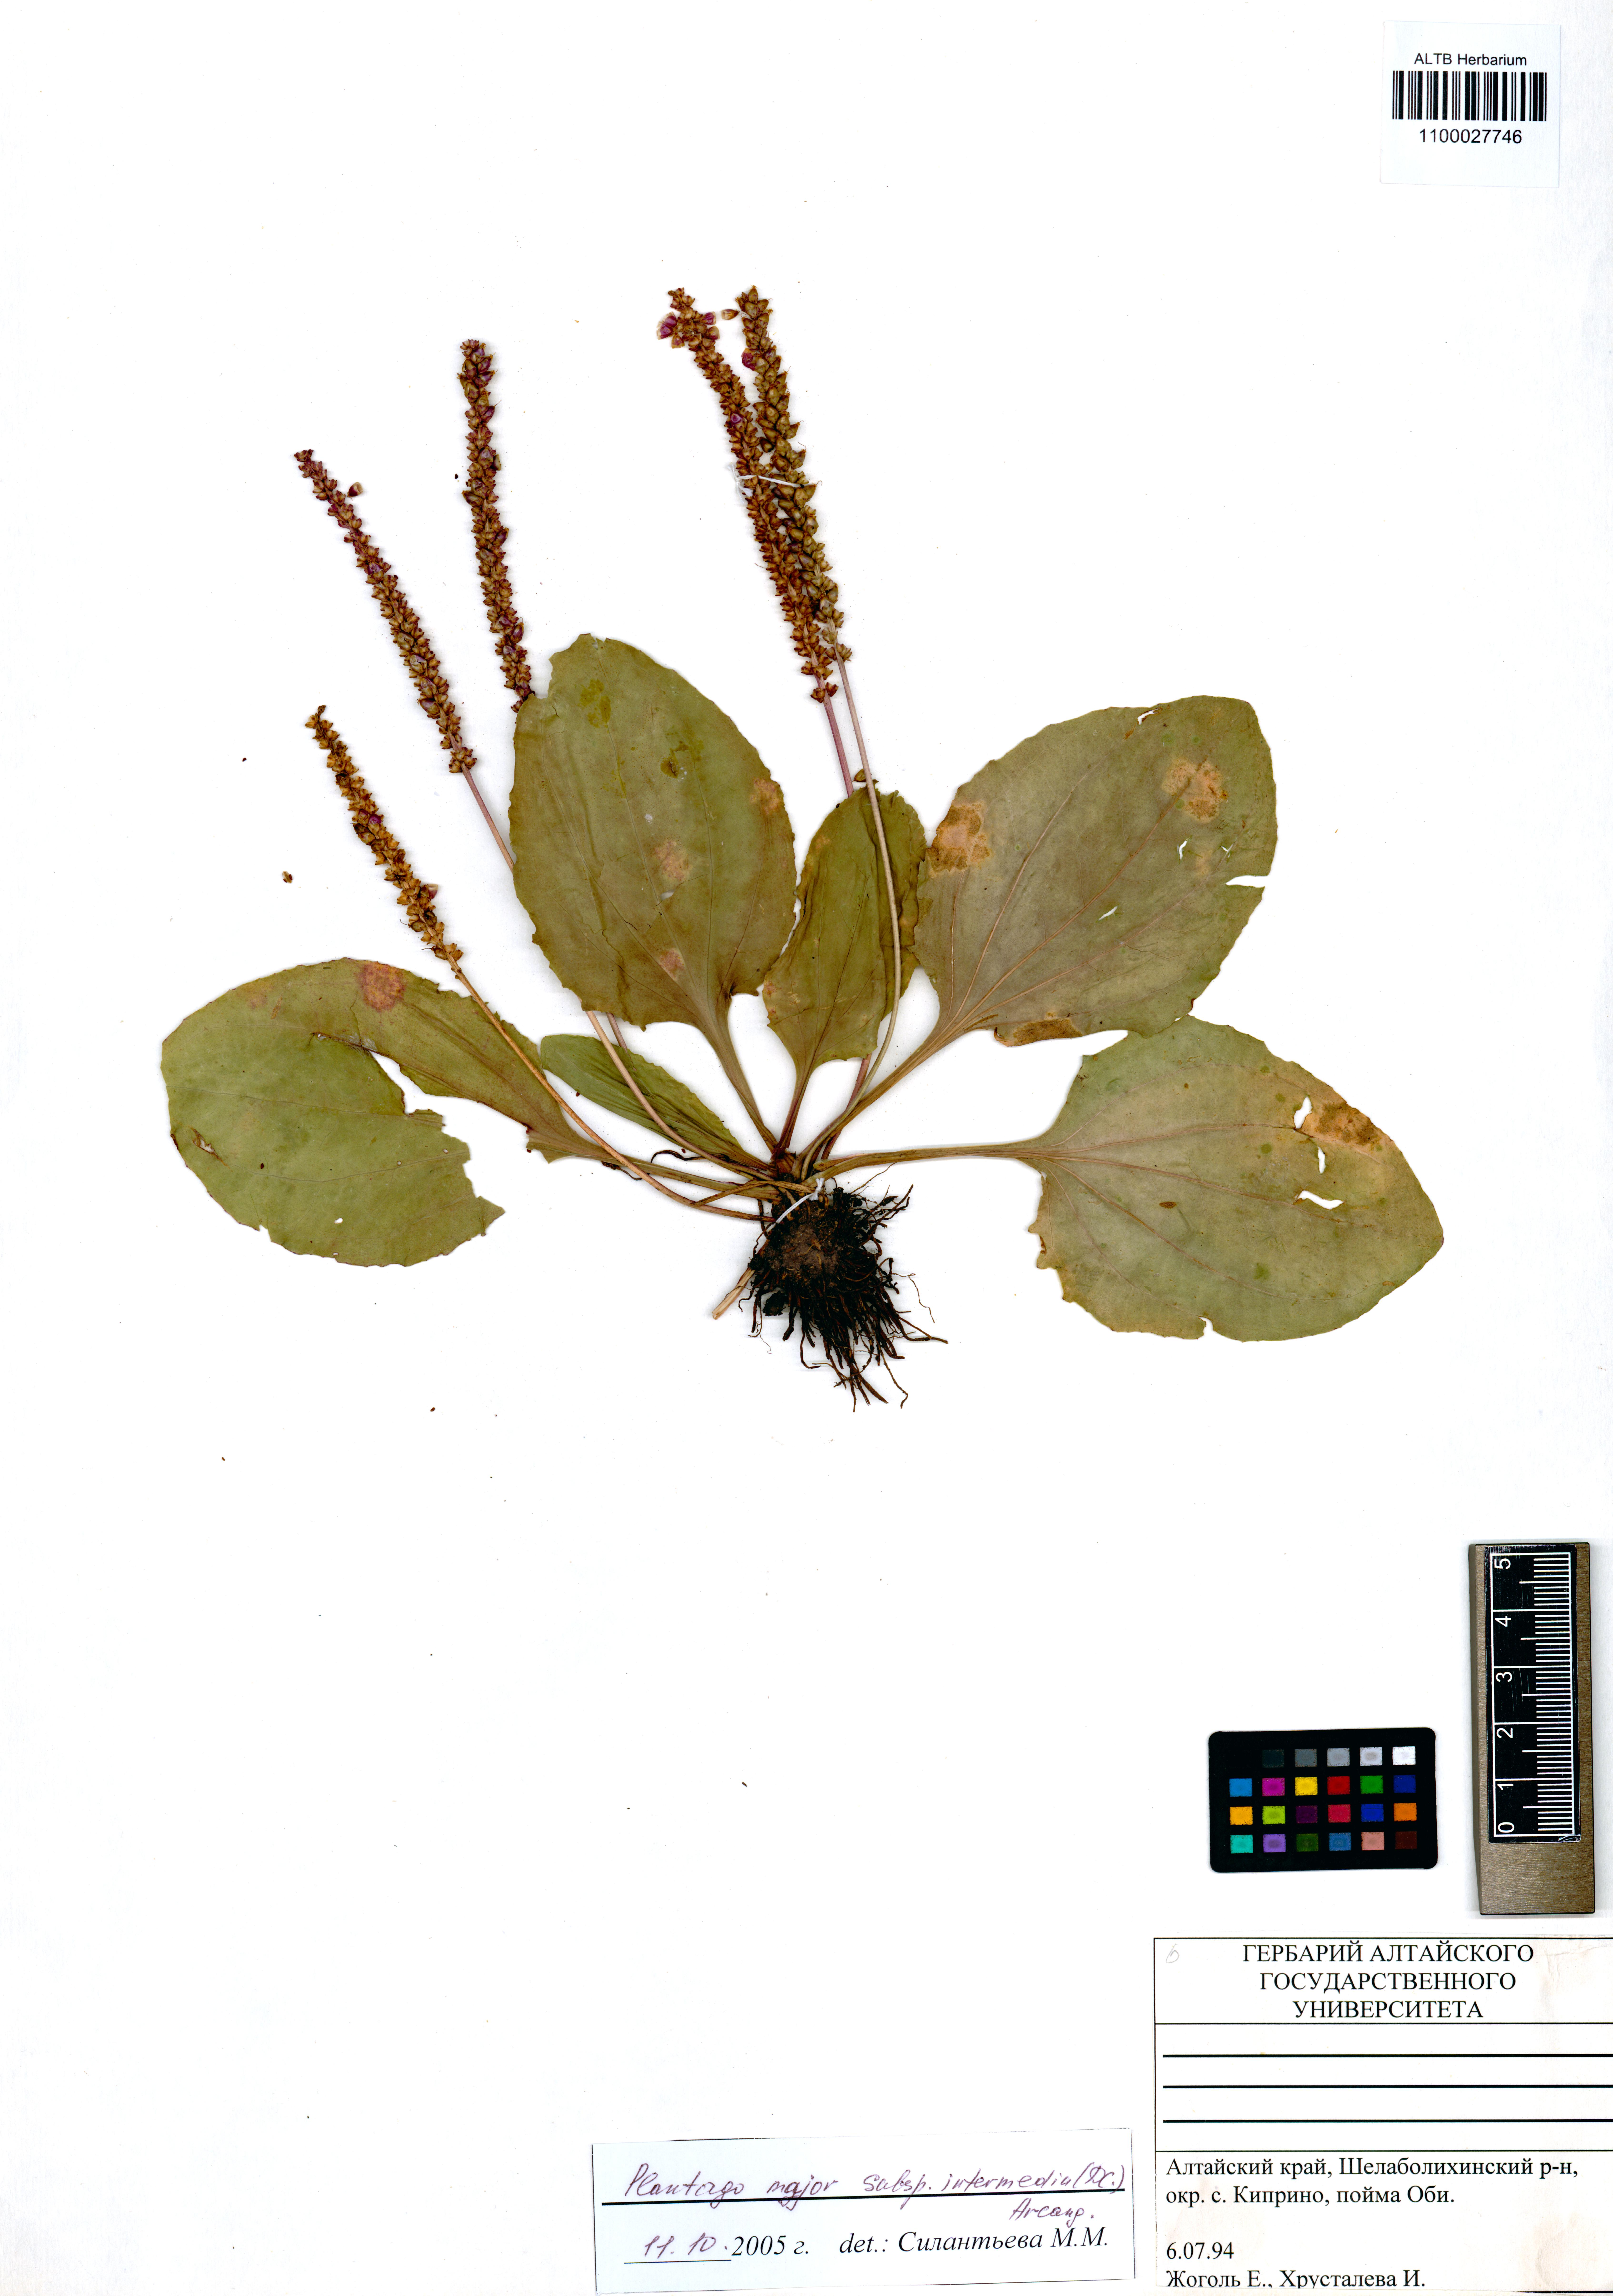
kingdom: Plantae
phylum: Tracheophyta
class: Magnoliopsida
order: Lamiales
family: Plantaginaceae
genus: Plantago
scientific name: Plantago uliginosa
